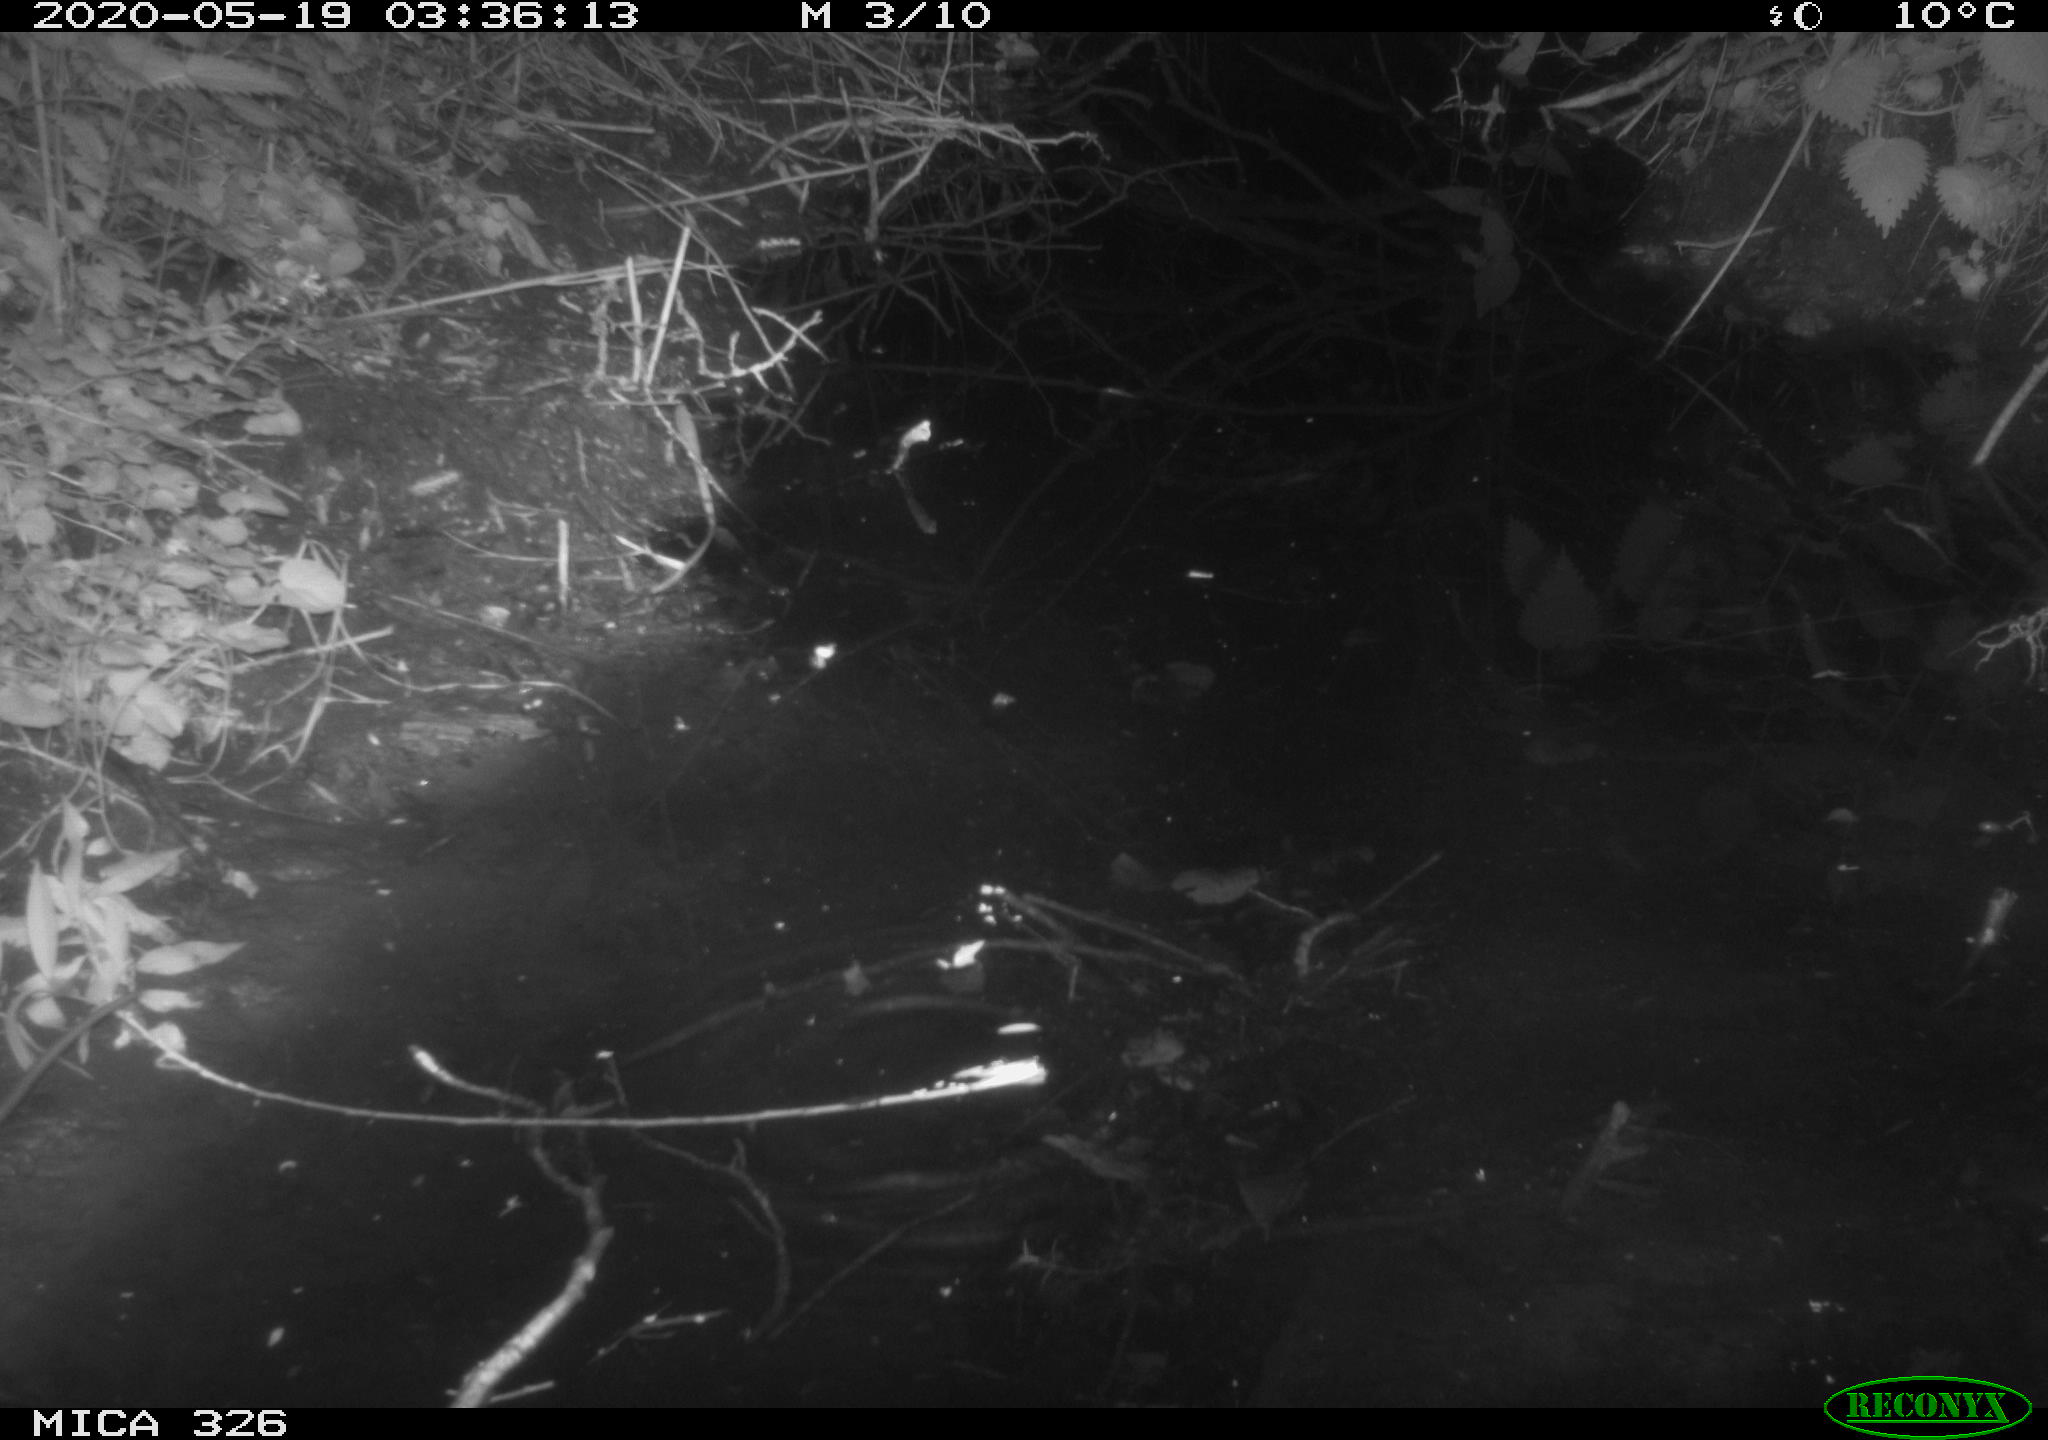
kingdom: Animalia
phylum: Chordata
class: Mammalia
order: Rodentia
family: Muridae
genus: Rattus
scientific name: Rattus norvegicus
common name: Brown rat
